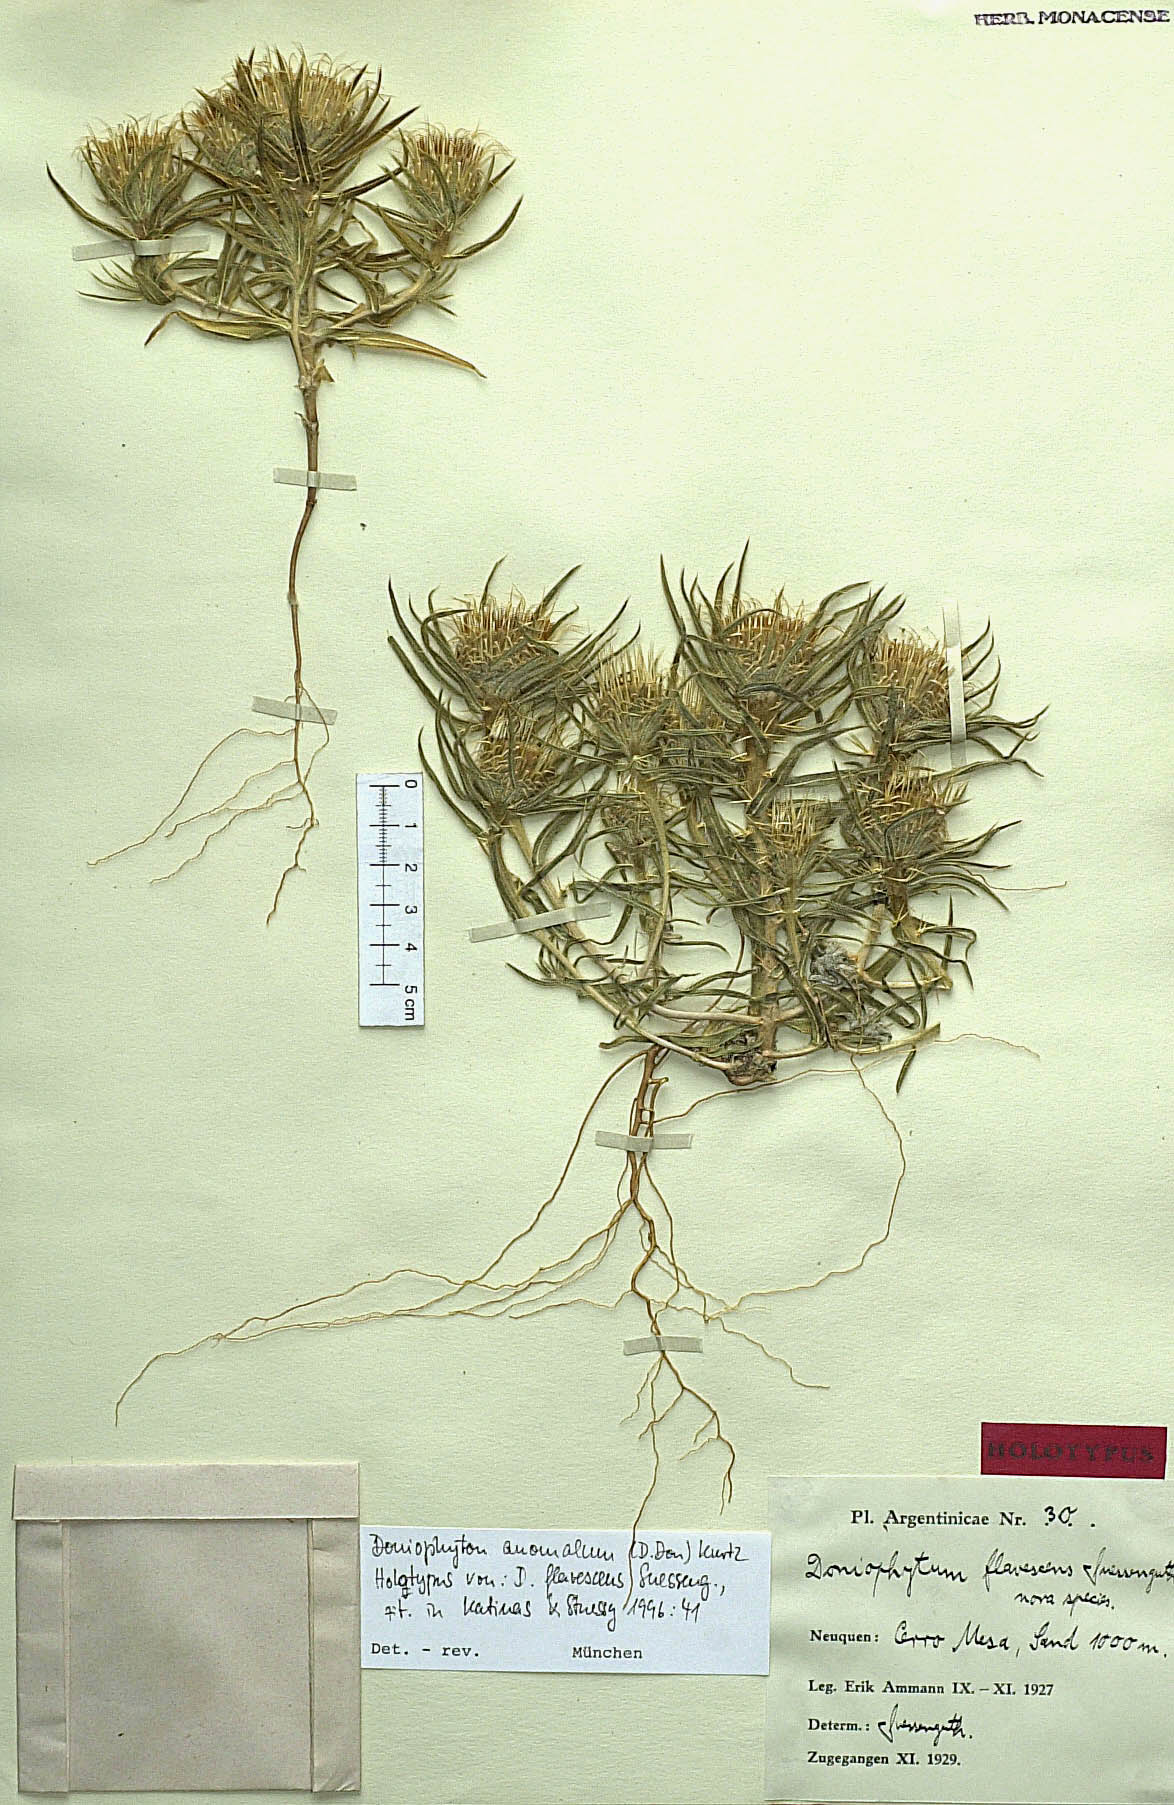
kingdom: Plantae
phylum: Tracheophyta
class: Magnoliopsida
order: Asterales
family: Asteraceae
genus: Doniophyton
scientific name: Doniophyton anomalum
